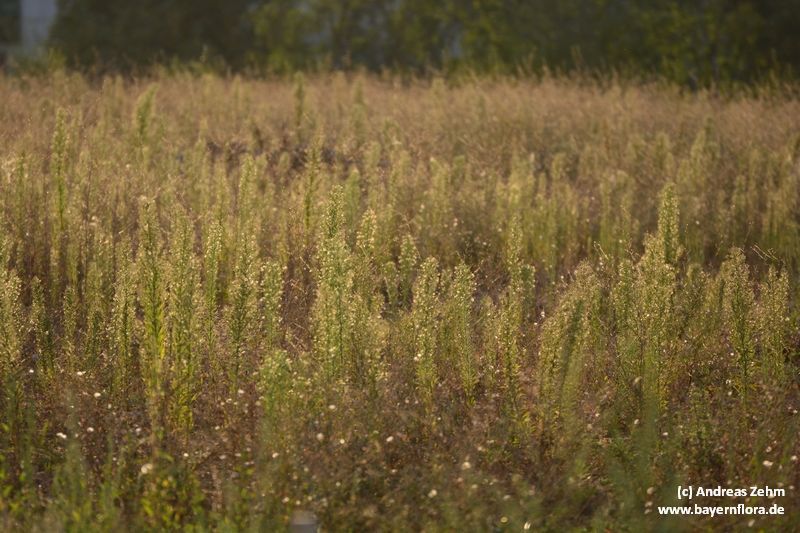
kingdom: Plantae
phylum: Tracheophyta
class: Magnoliopsida
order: Asterales
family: Asteraceae
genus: Erigeron
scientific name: Erigeron canadensis
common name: Canadian fleabane
